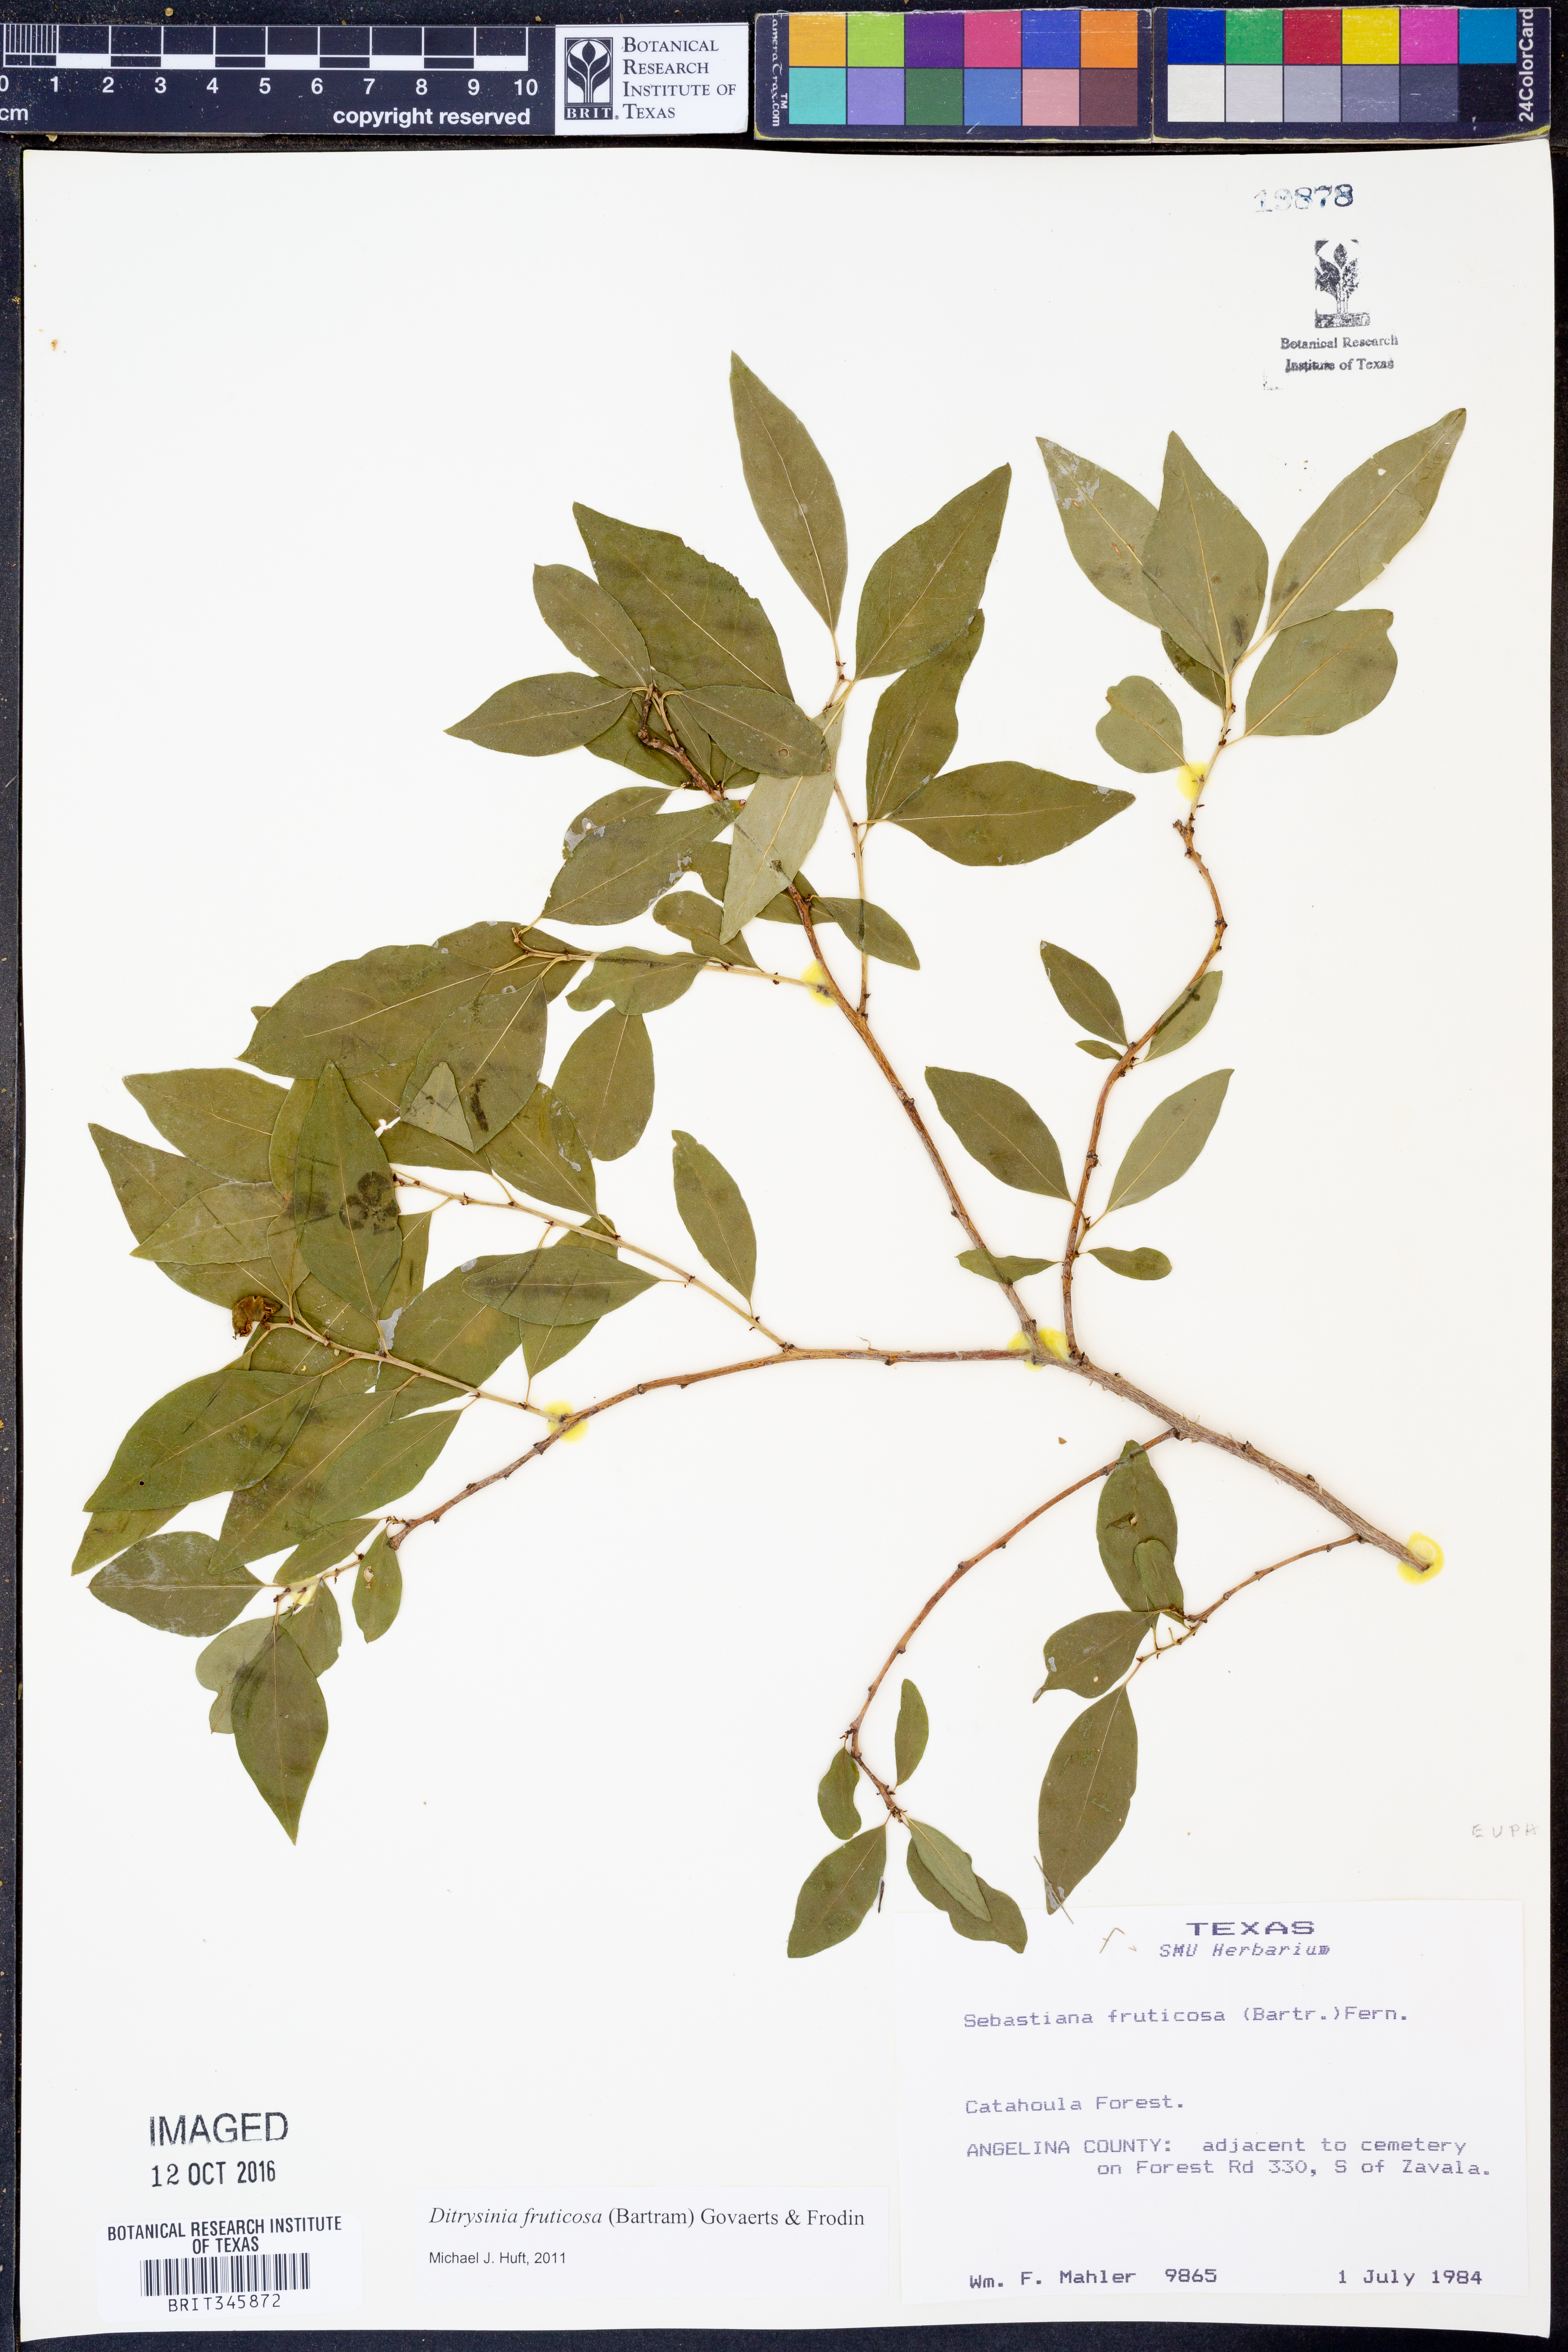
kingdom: Plantae
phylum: Tracheophyta
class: Magnoliopsida
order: Malpighiales
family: Euphorbiaceae
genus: Ditrysinia
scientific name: Ditrysinia fruticosa
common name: Gulf sebastian-bush
